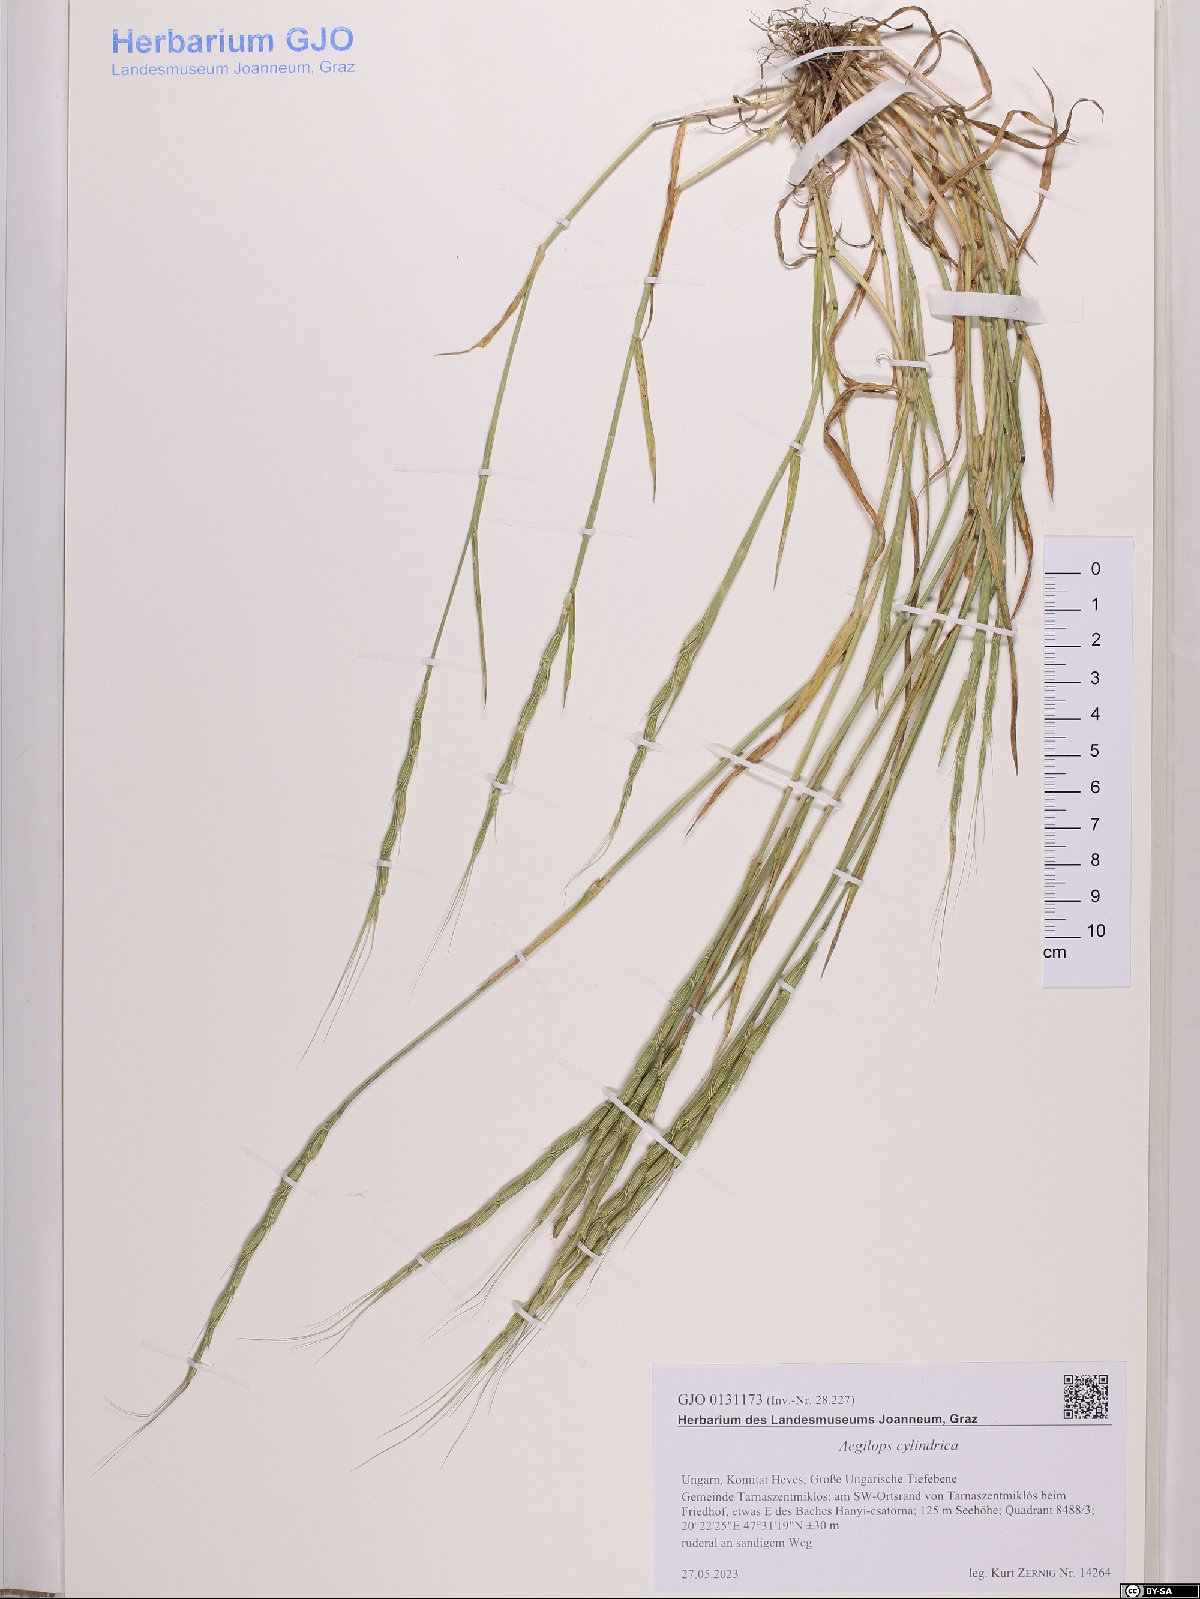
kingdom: Plantae
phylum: Tracheophyta
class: Liliopsida
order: Poales
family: Poaceae
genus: Aegilops
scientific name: Aegilops cylindrica
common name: Jointed goatgrass
